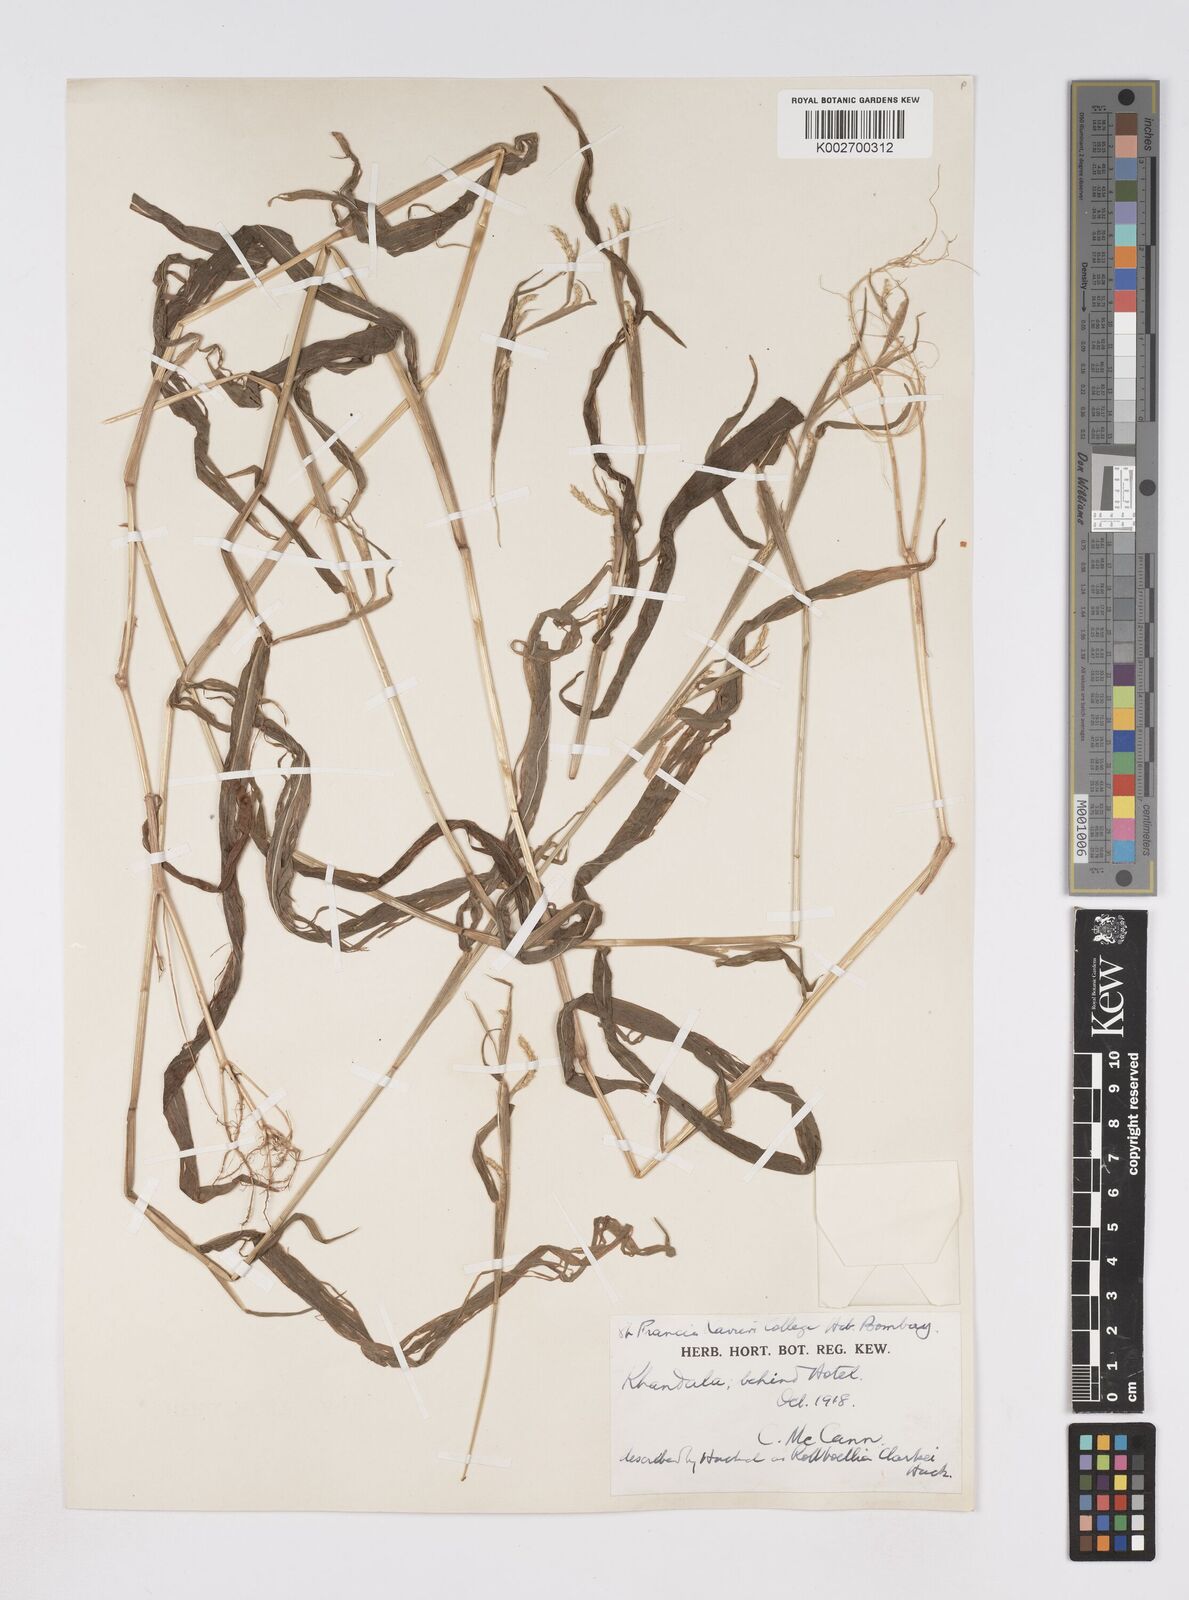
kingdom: Plantae
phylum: Tracheophyta
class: Liliopsida
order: Poales
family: Poaceae
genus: Rottboellia
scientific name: Rottboellia clarkei
